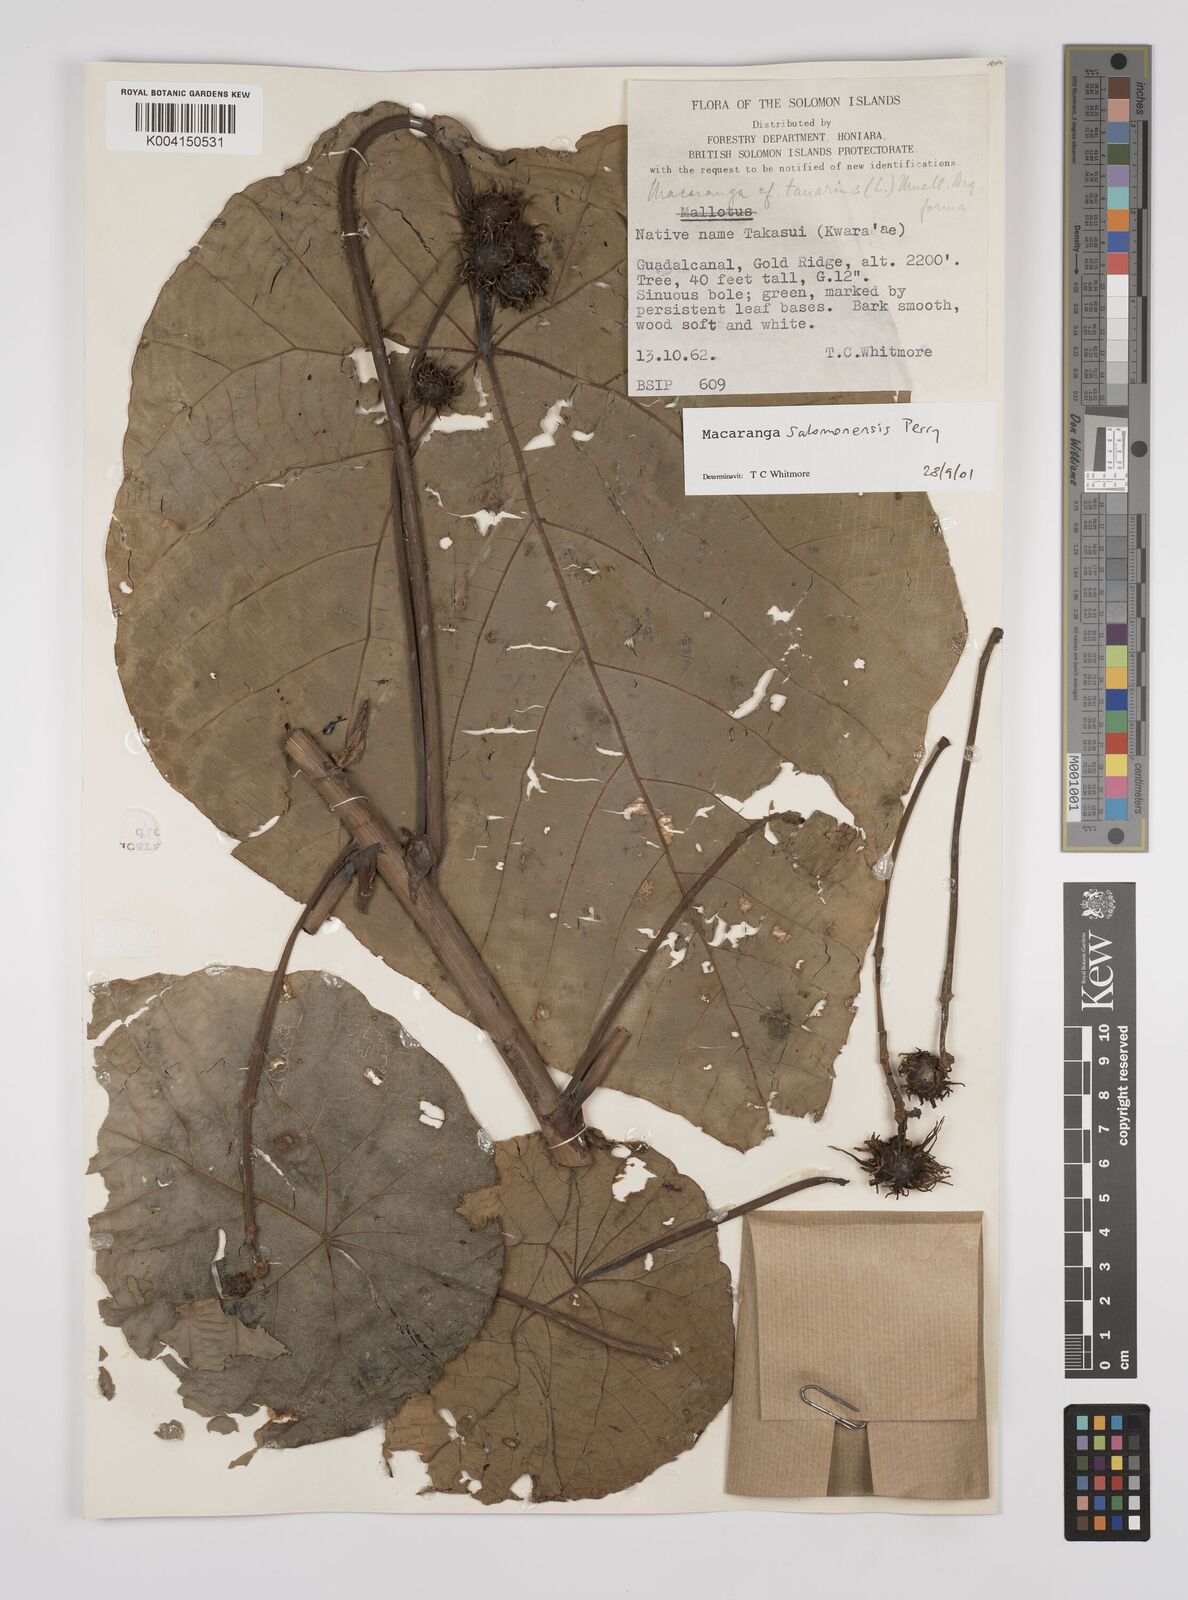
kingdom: Plantae
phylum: Tracheophyta
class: Magnoliopsida
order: Malpighiales
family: Euphorbiaceae
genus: Macaranga
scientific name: Macaranga salomonensis
